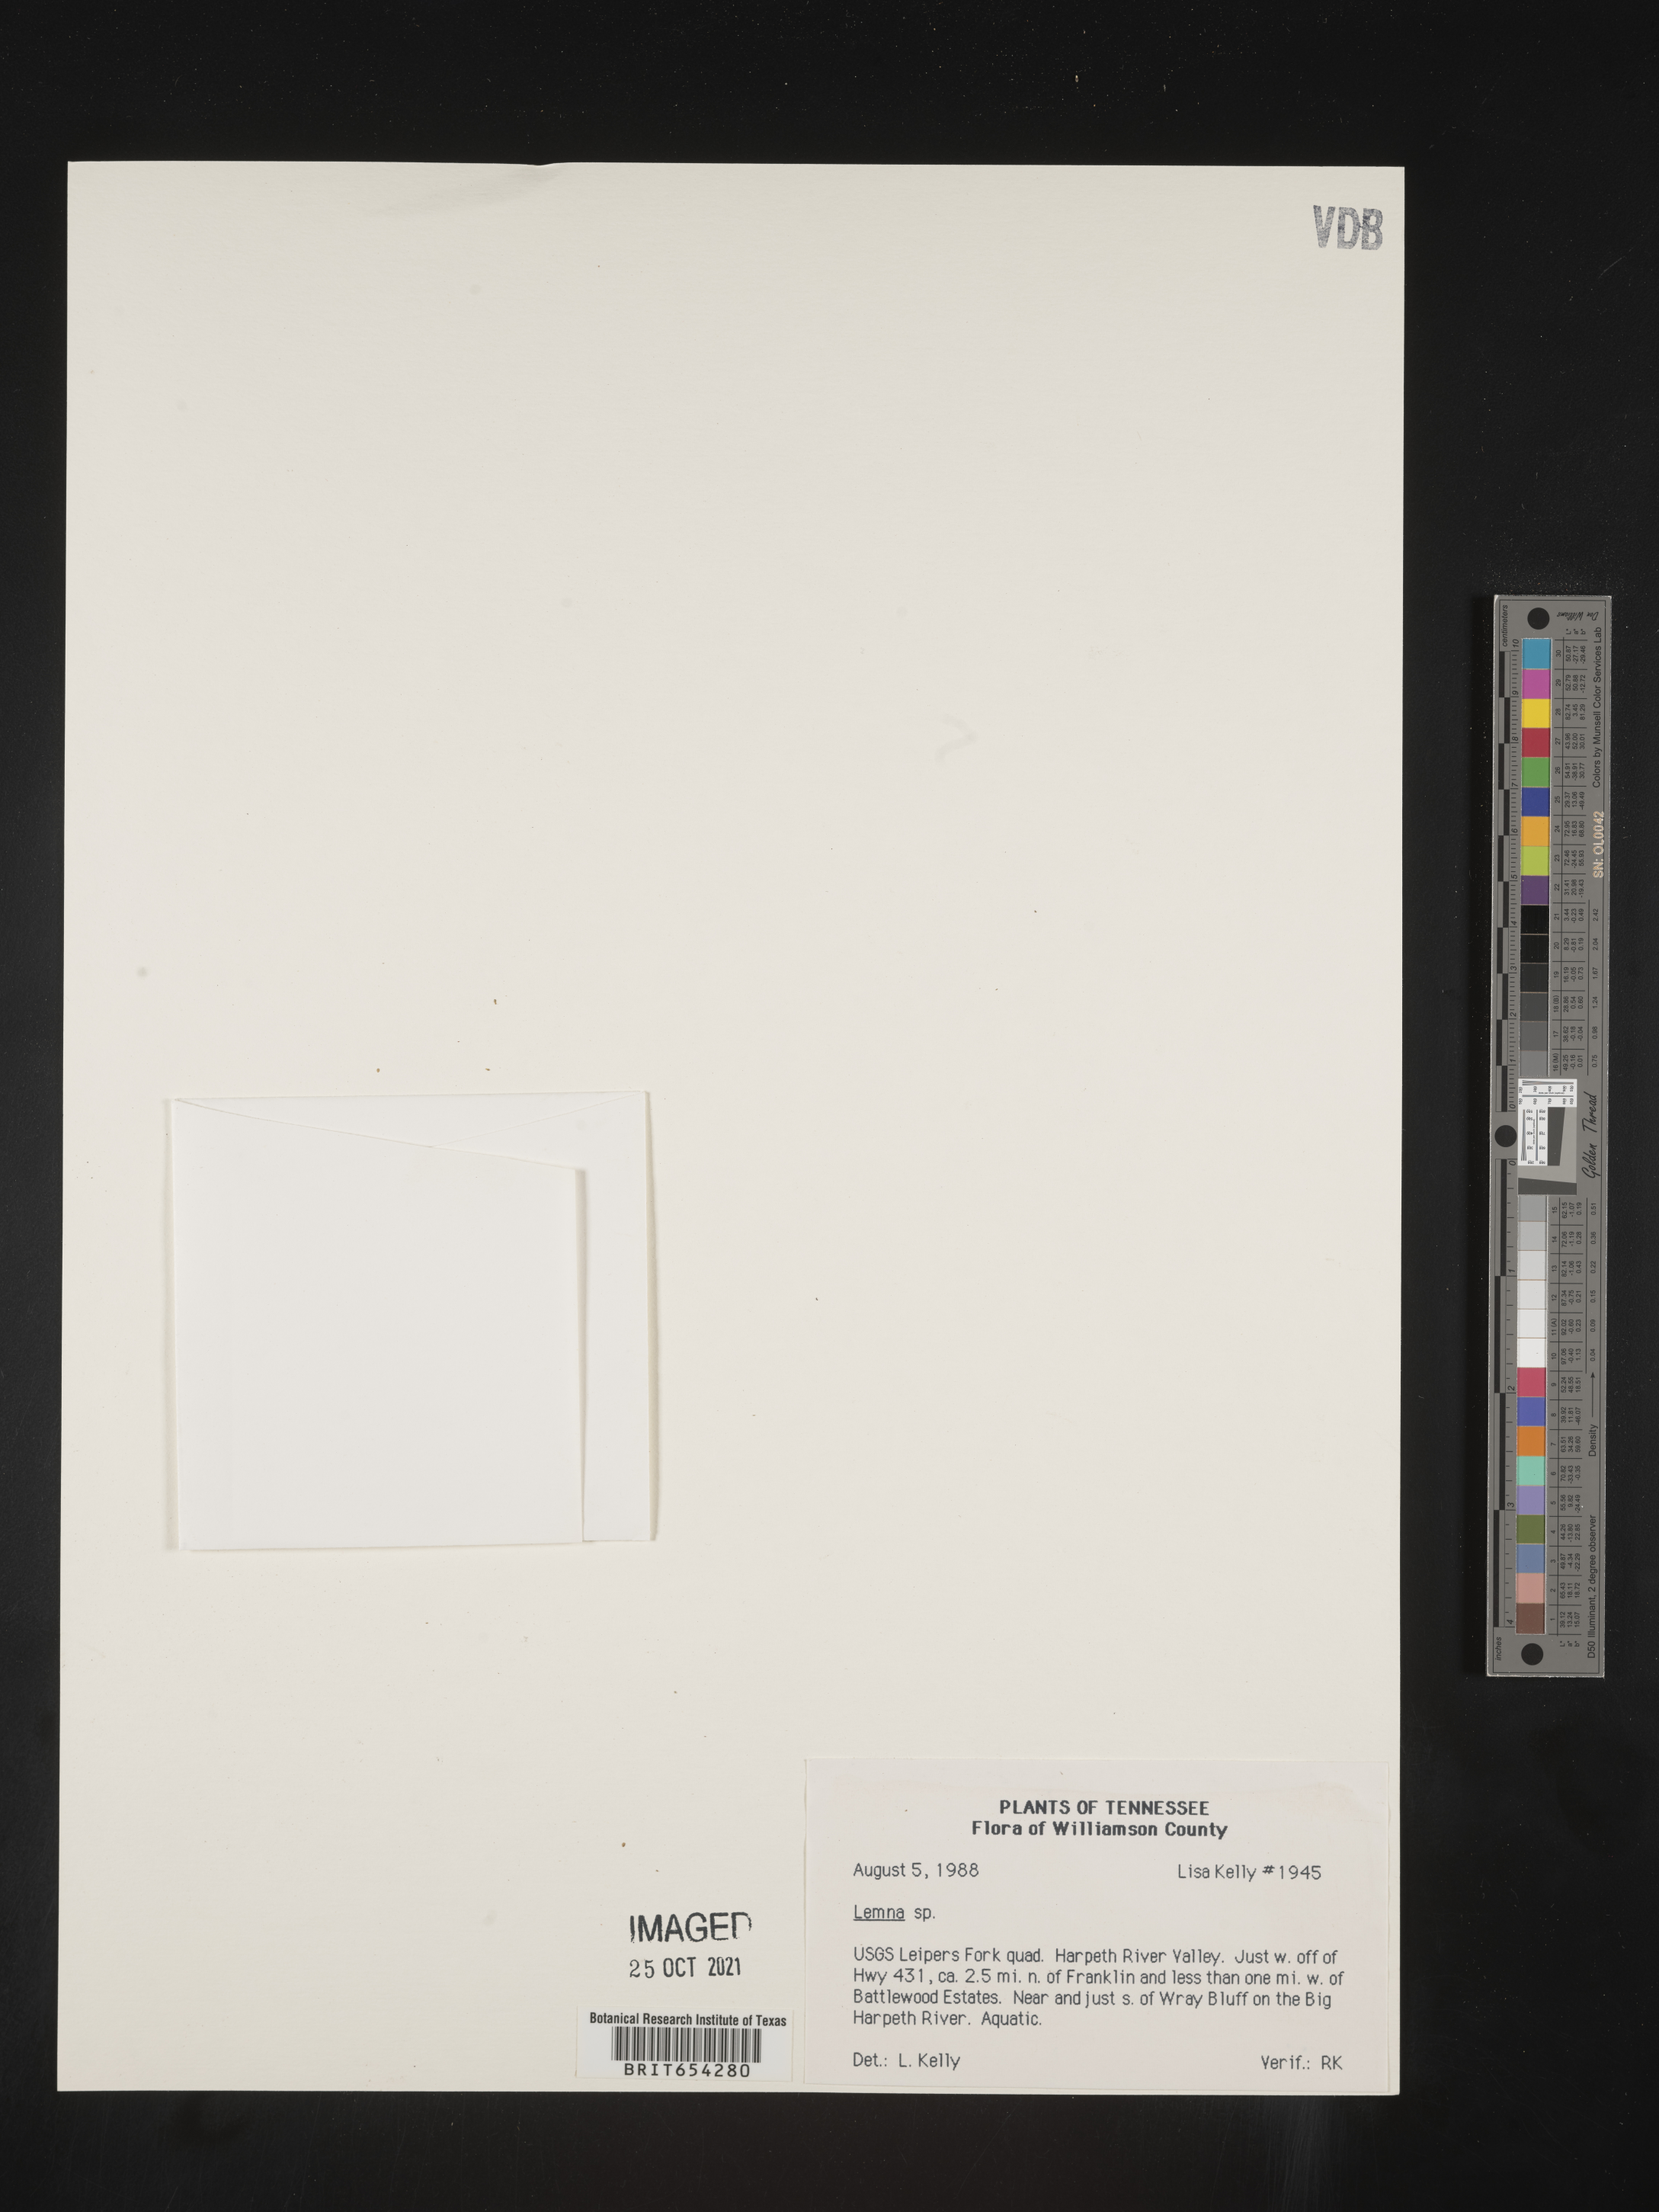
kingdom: Plantae
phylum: Tracheophyta
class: Liliopsida
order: Alismatales
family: Araceae
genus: Lemna
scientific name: Lemna
